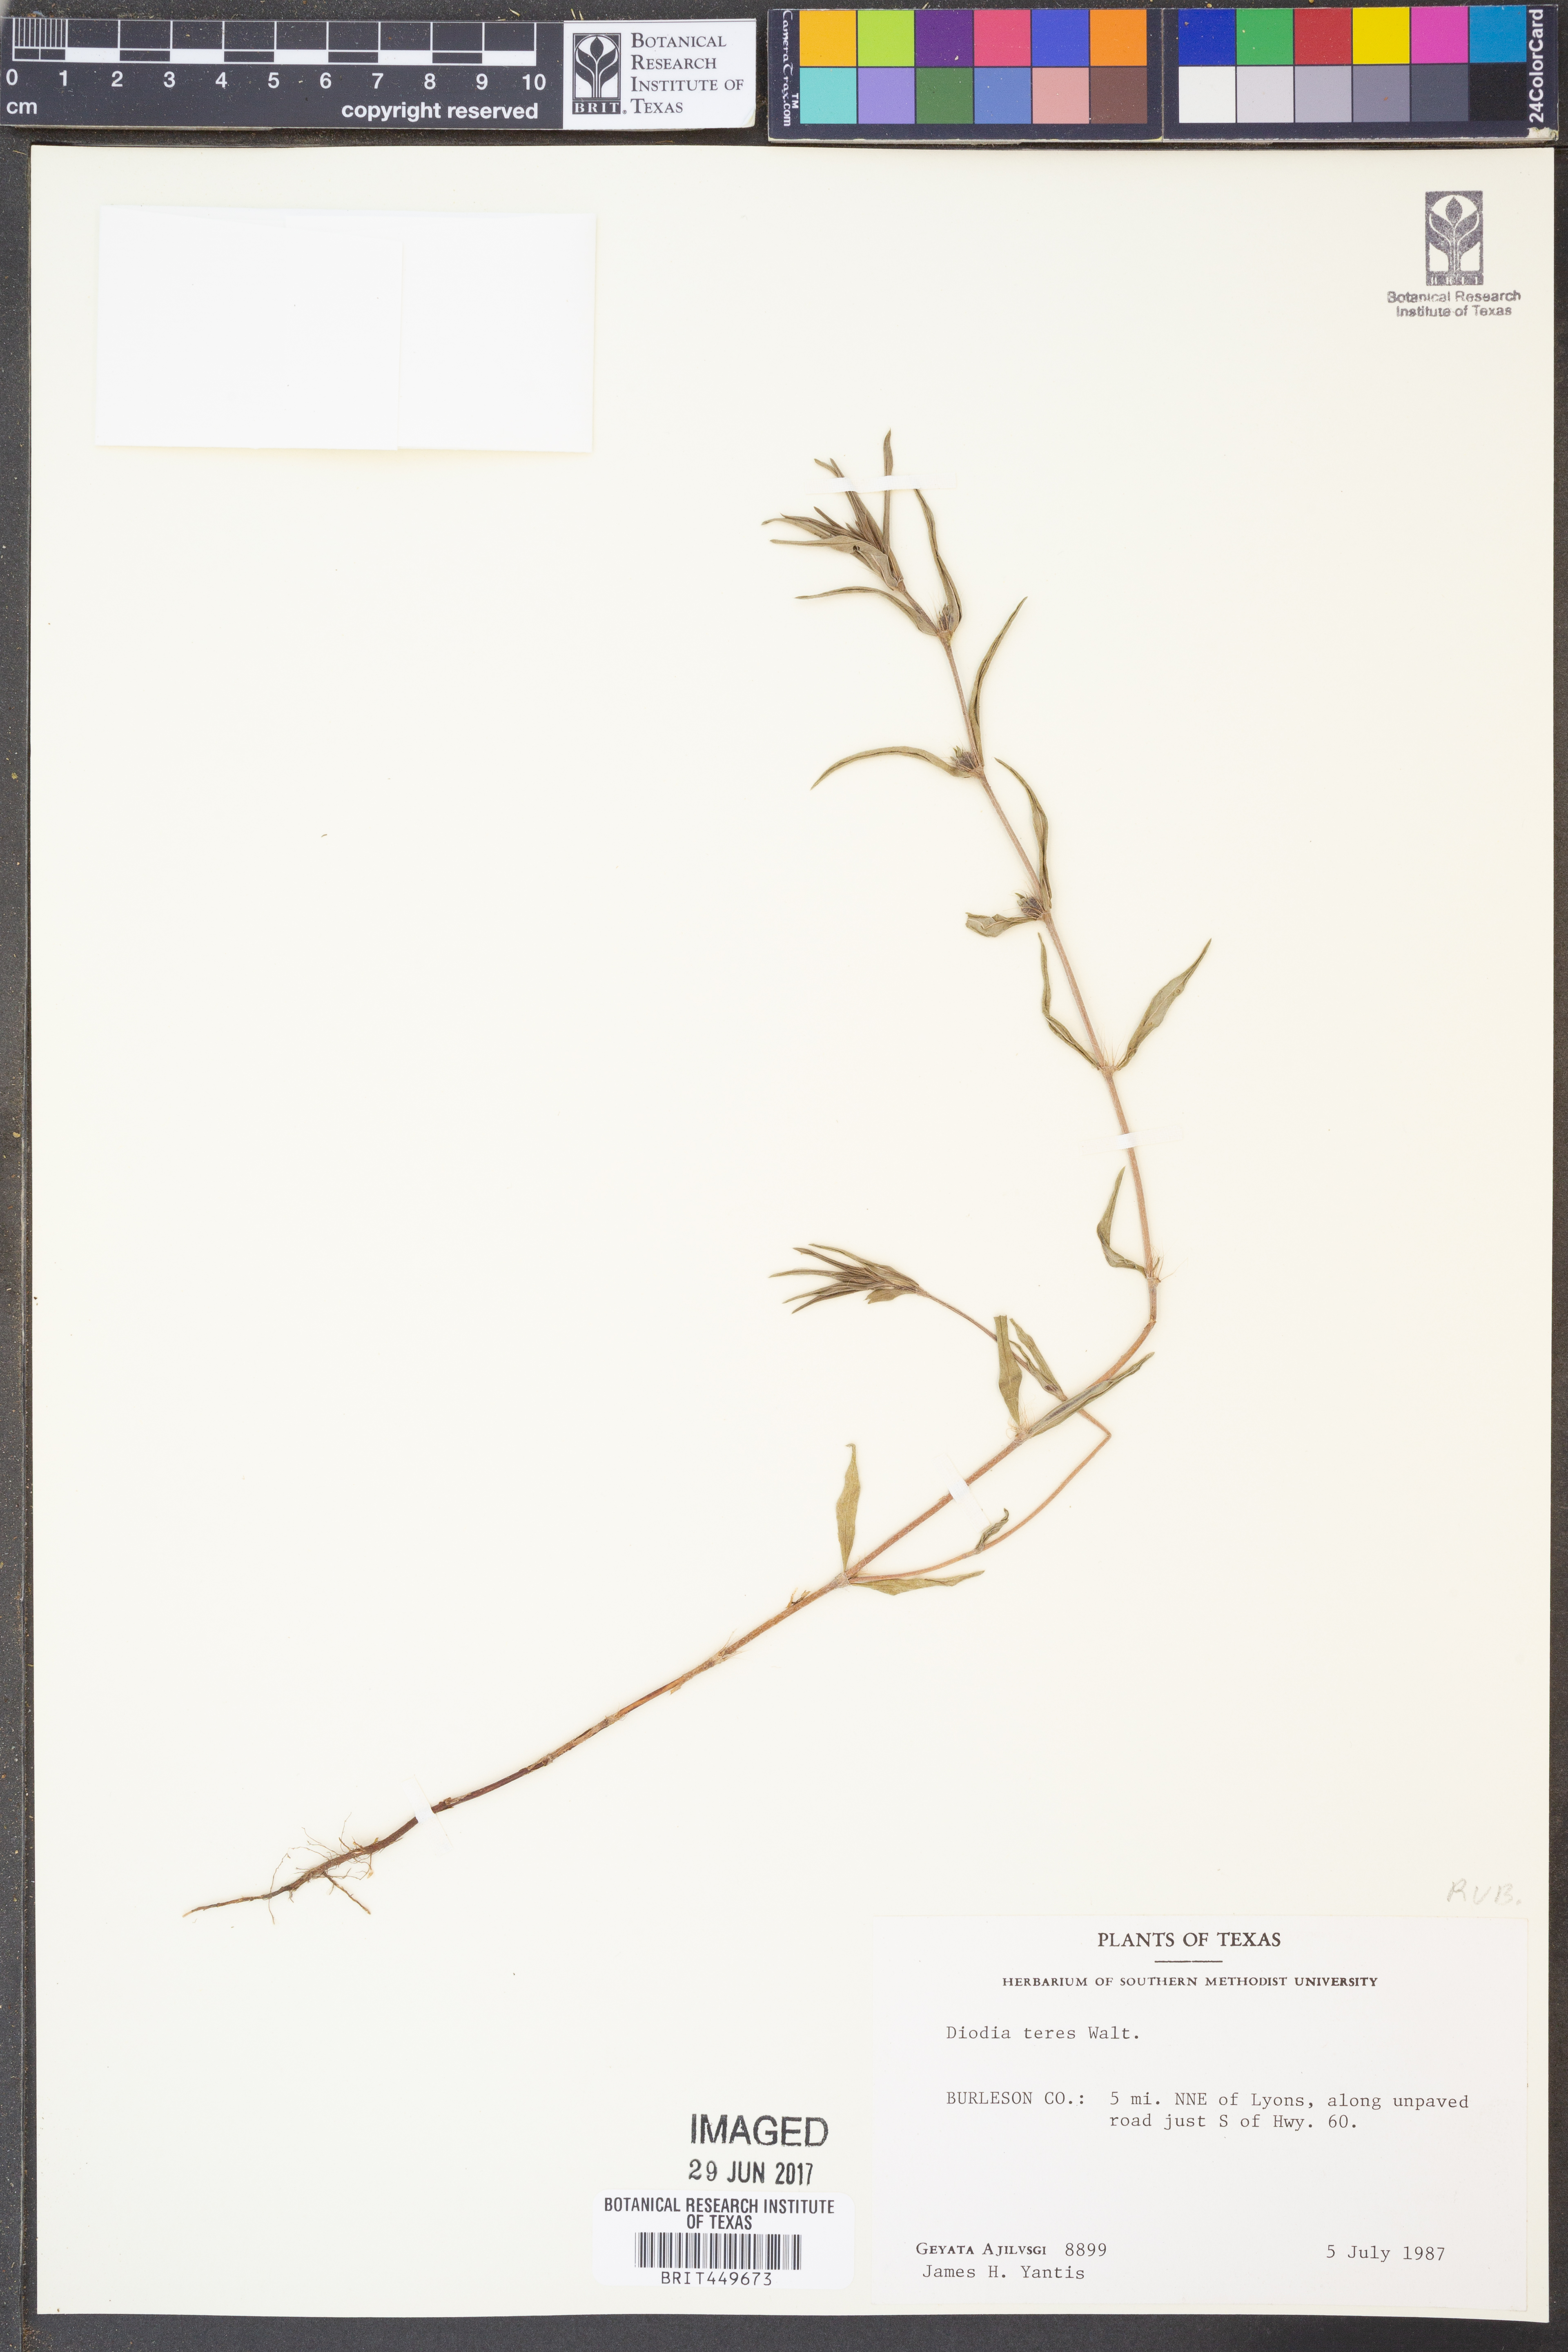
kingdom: Plantae
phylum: Tracheophyta
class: Magnoliopsida
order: Gentianales
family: Rubiaceae
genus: Hexasepalum
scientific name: Hexasepalum teres
